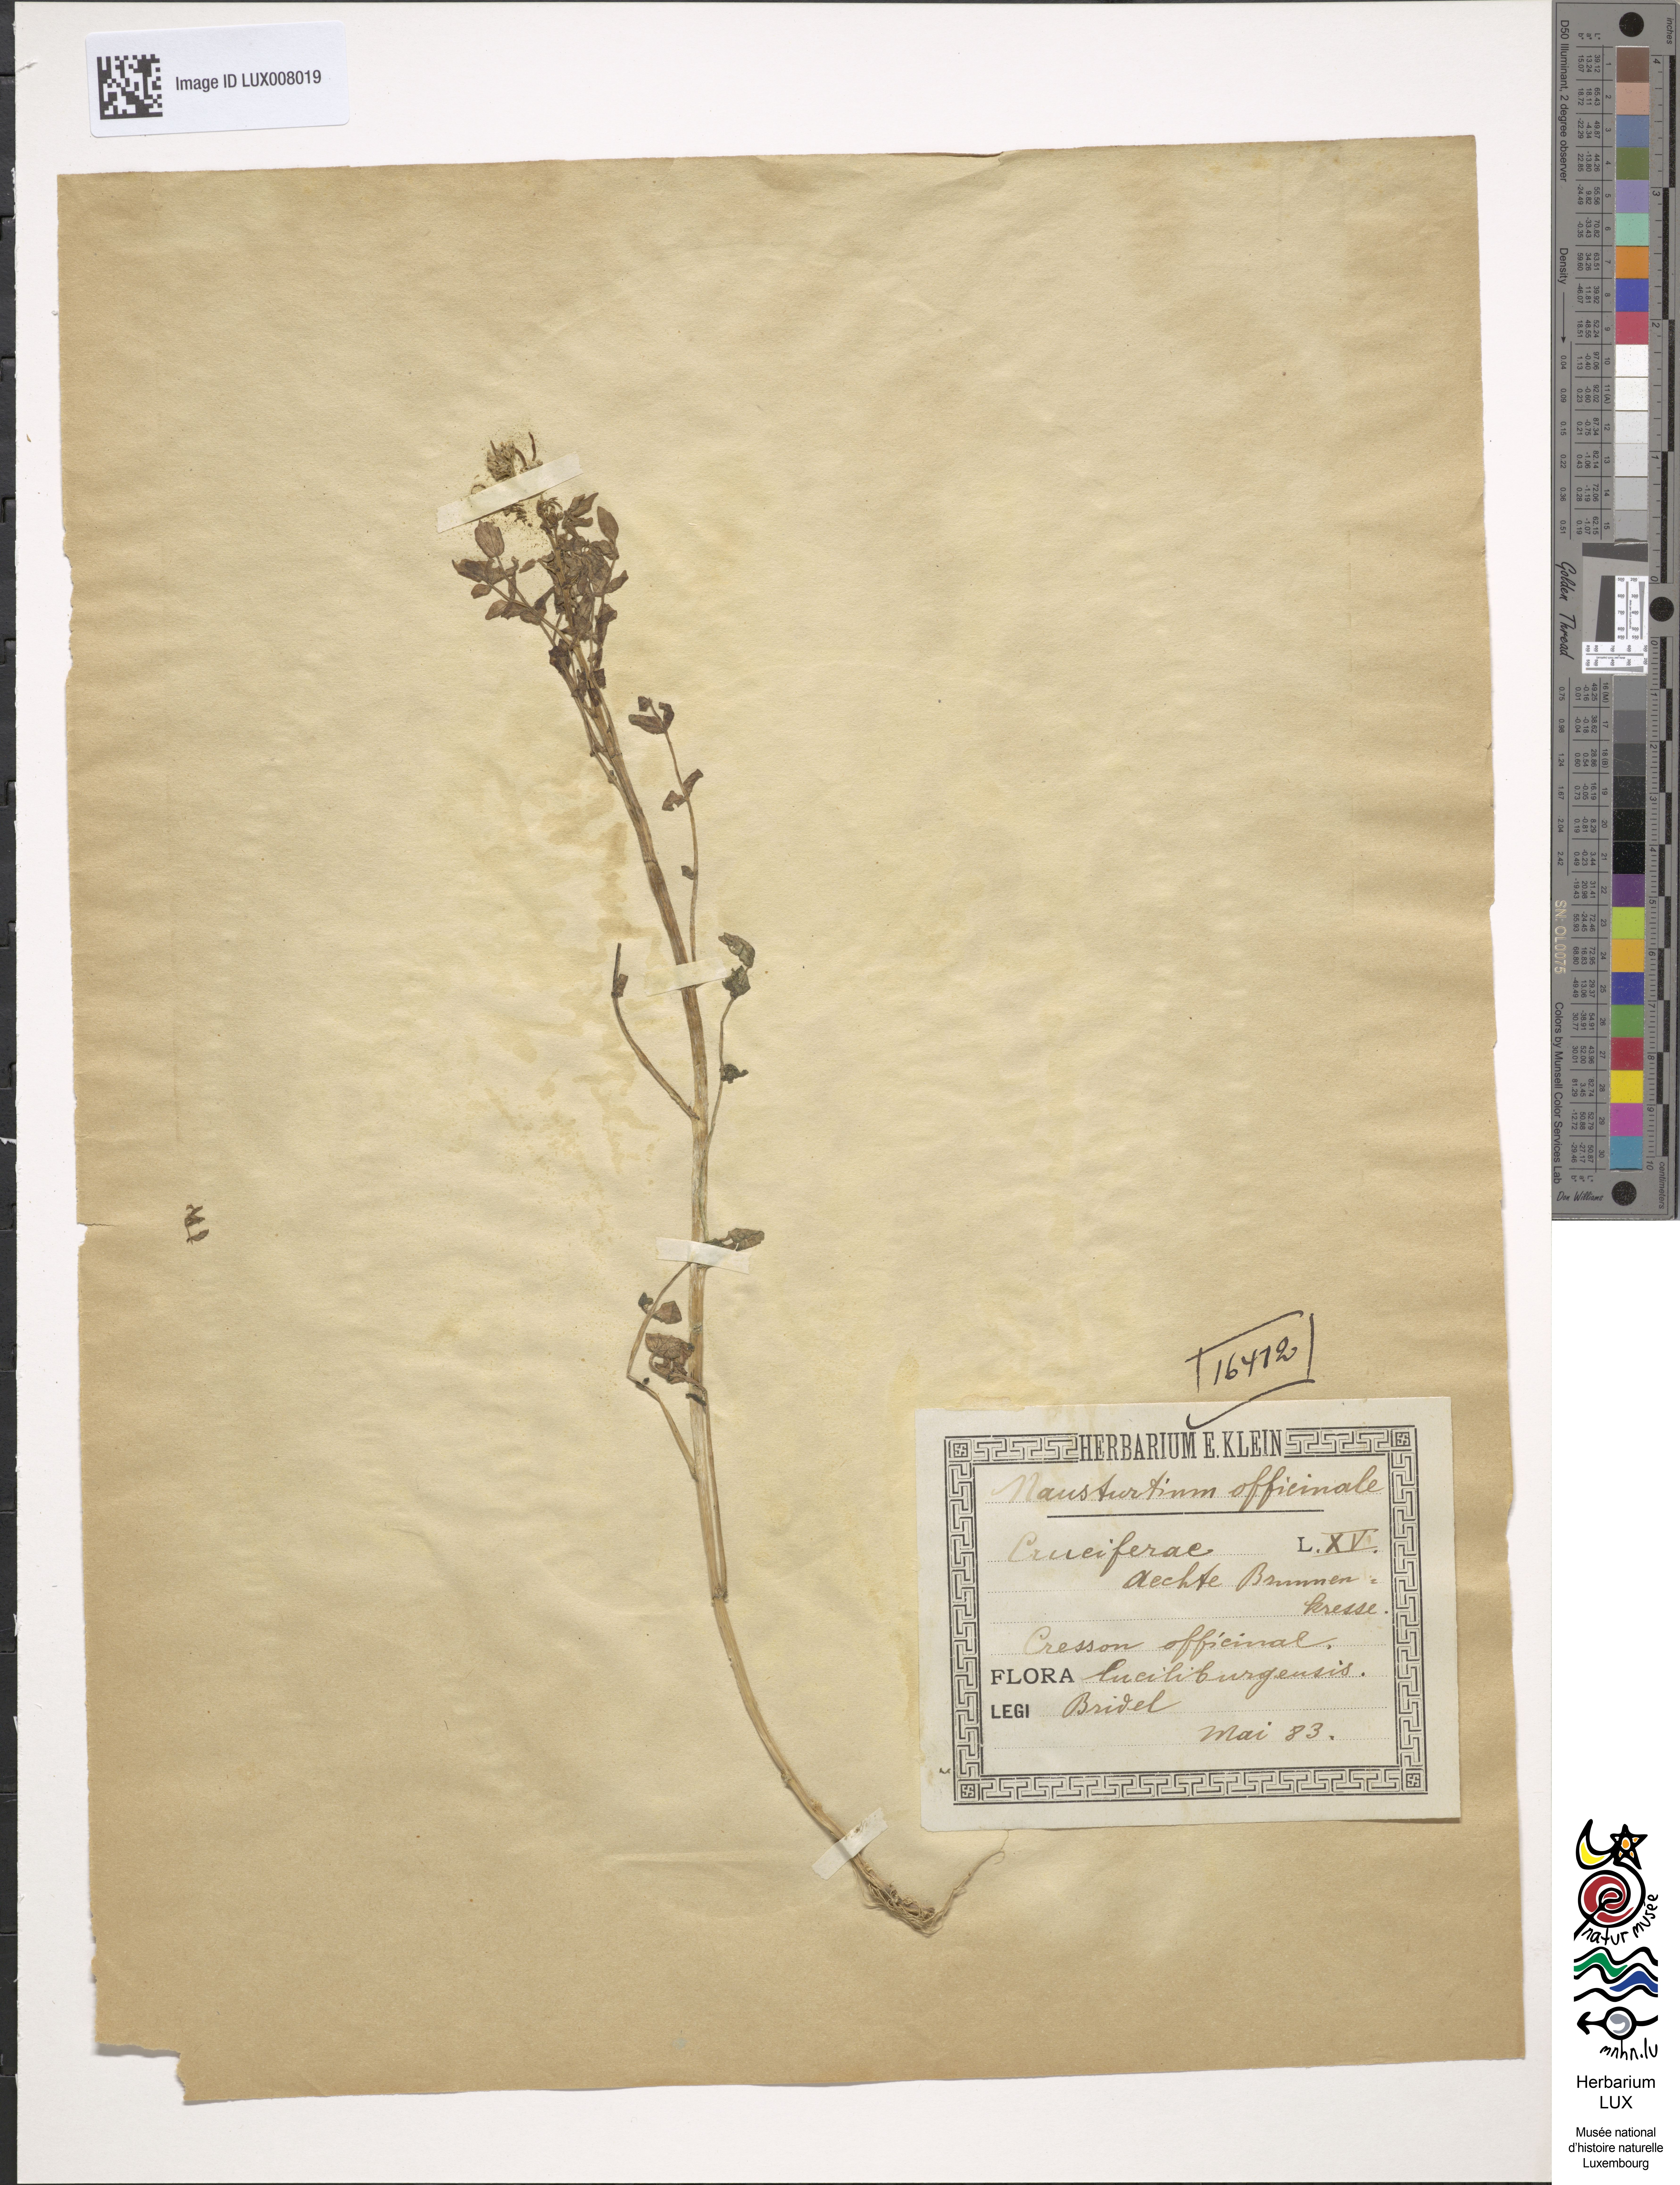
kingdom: Plantae
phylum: Tracheophyta
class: Magnoliopsida
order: Brassicales
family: Brassicaceae
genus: Nasturtium
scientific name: Nasturtium officinale
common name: Watercress
